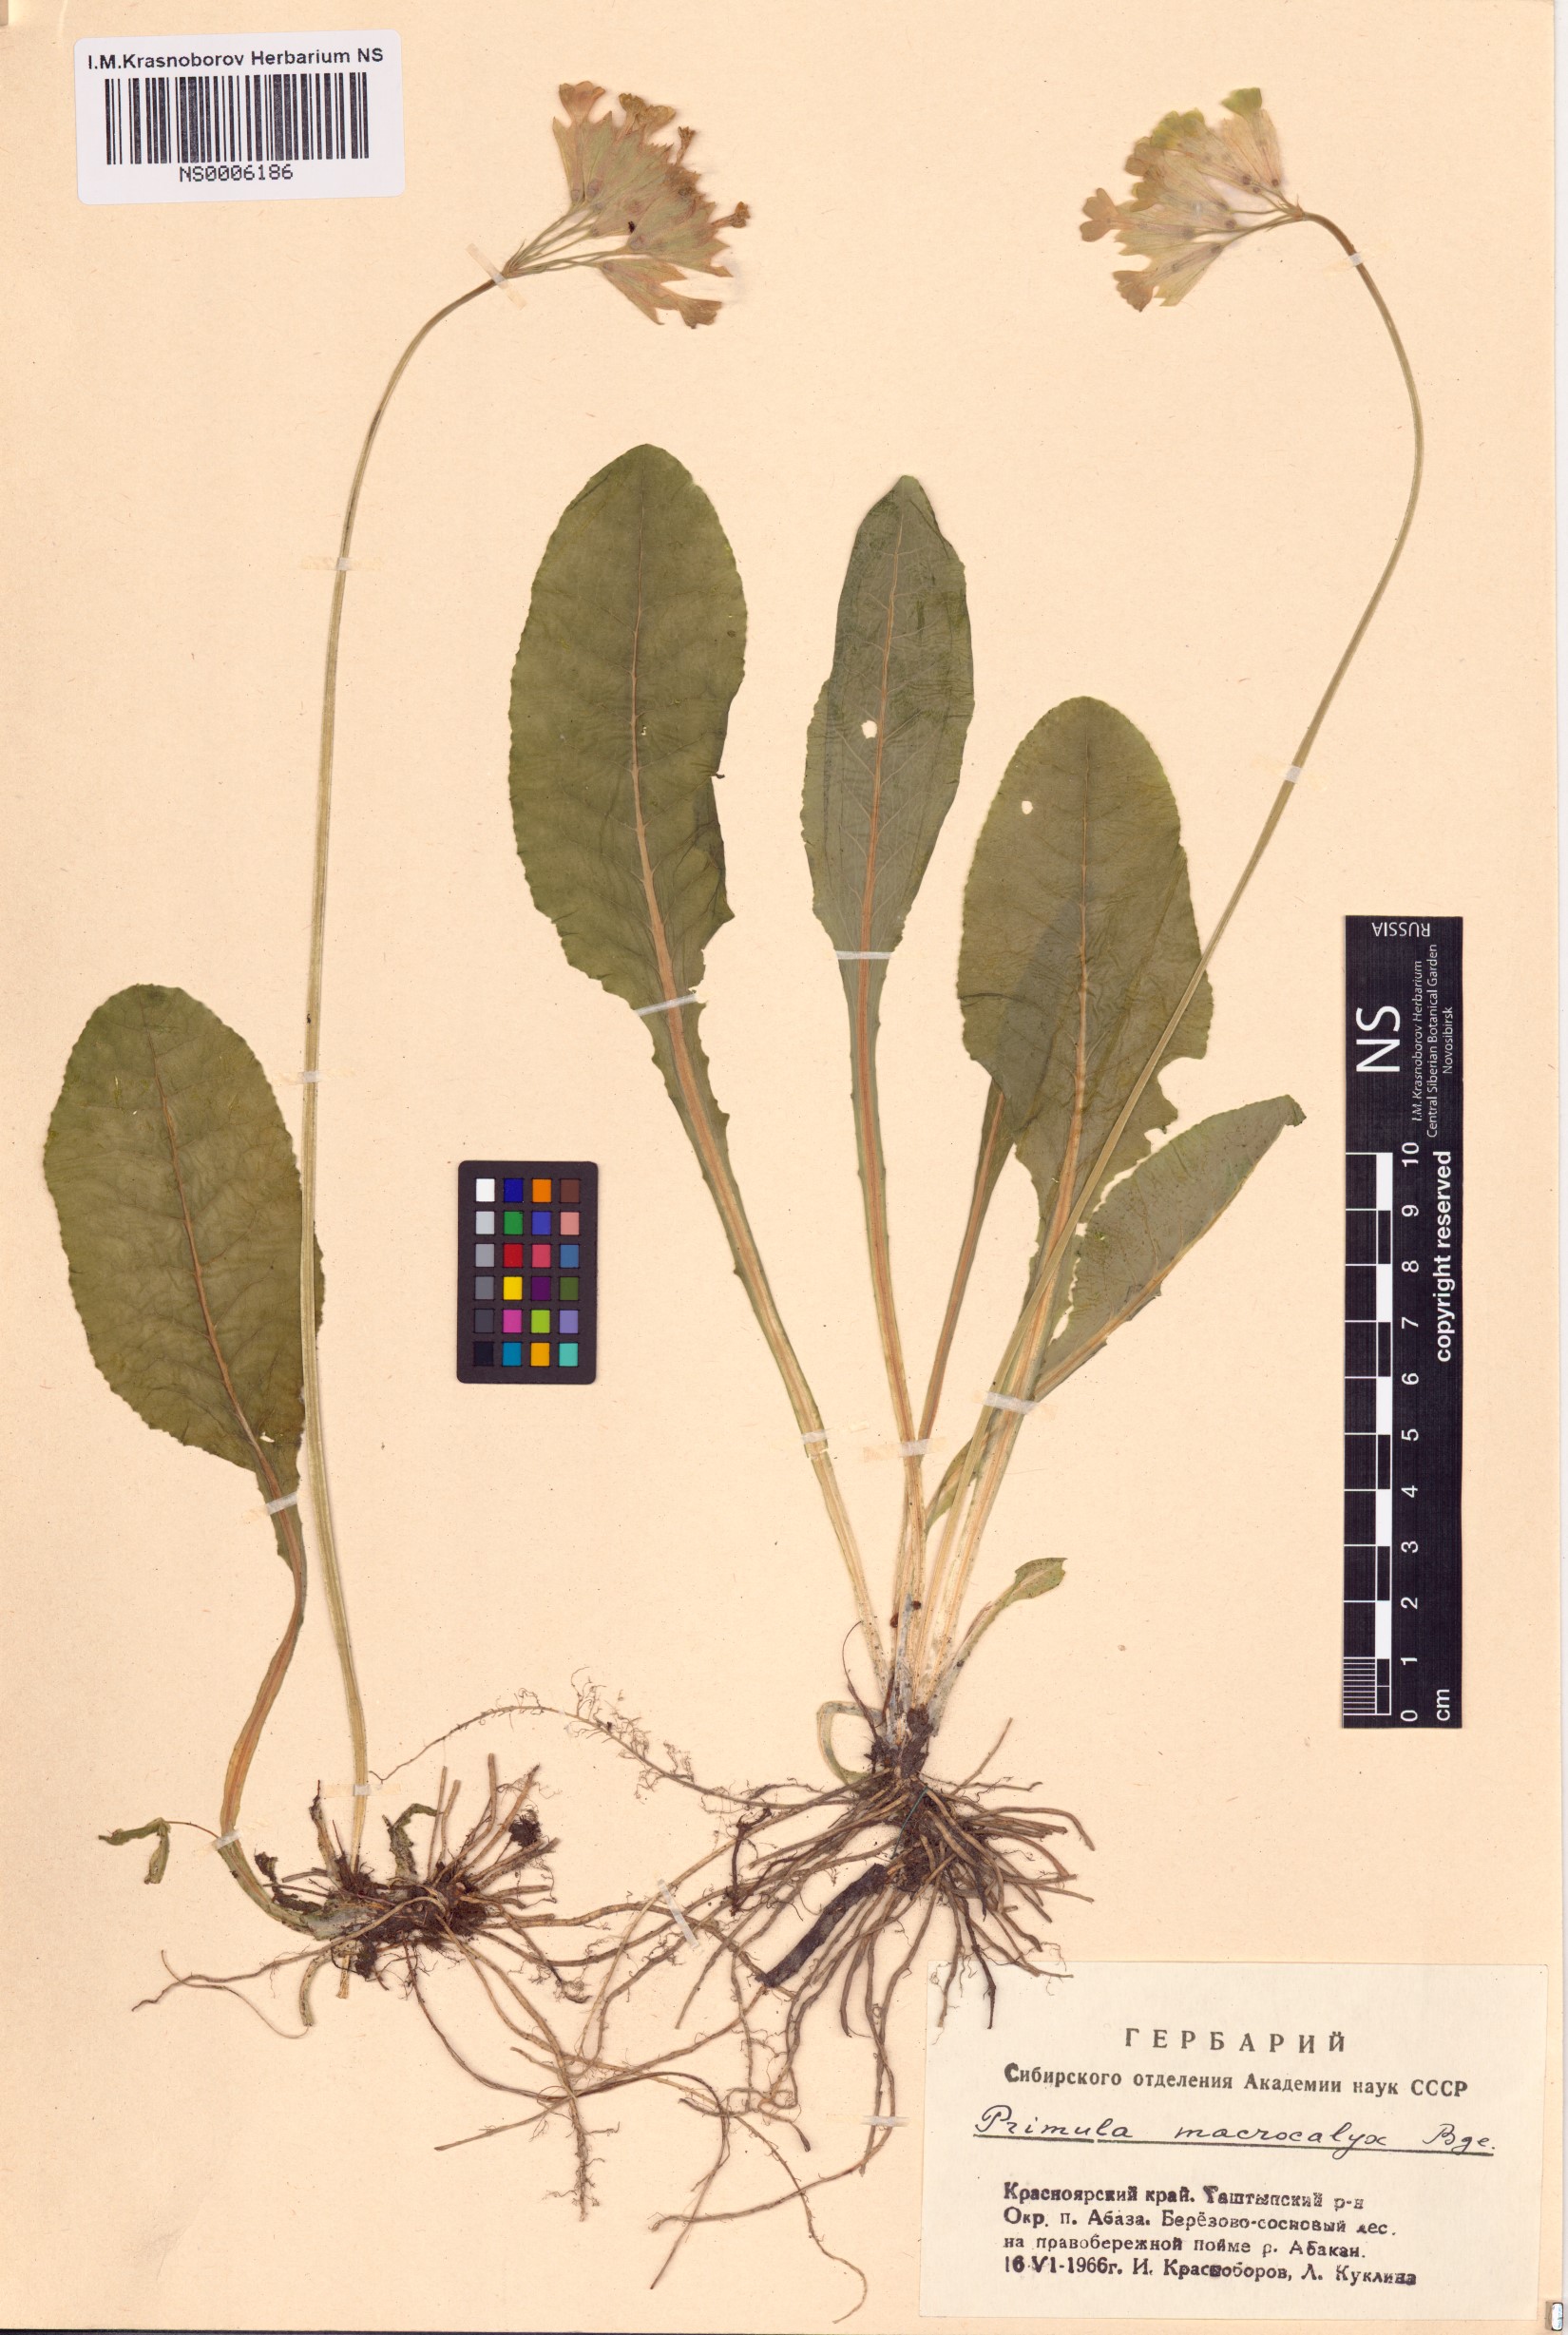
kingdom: Plantae
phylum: Tracheophyta
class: Magnoliopsida
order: Ericales
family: Primulaceae
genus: Primula
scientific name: Primula veris
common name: Cowslip
